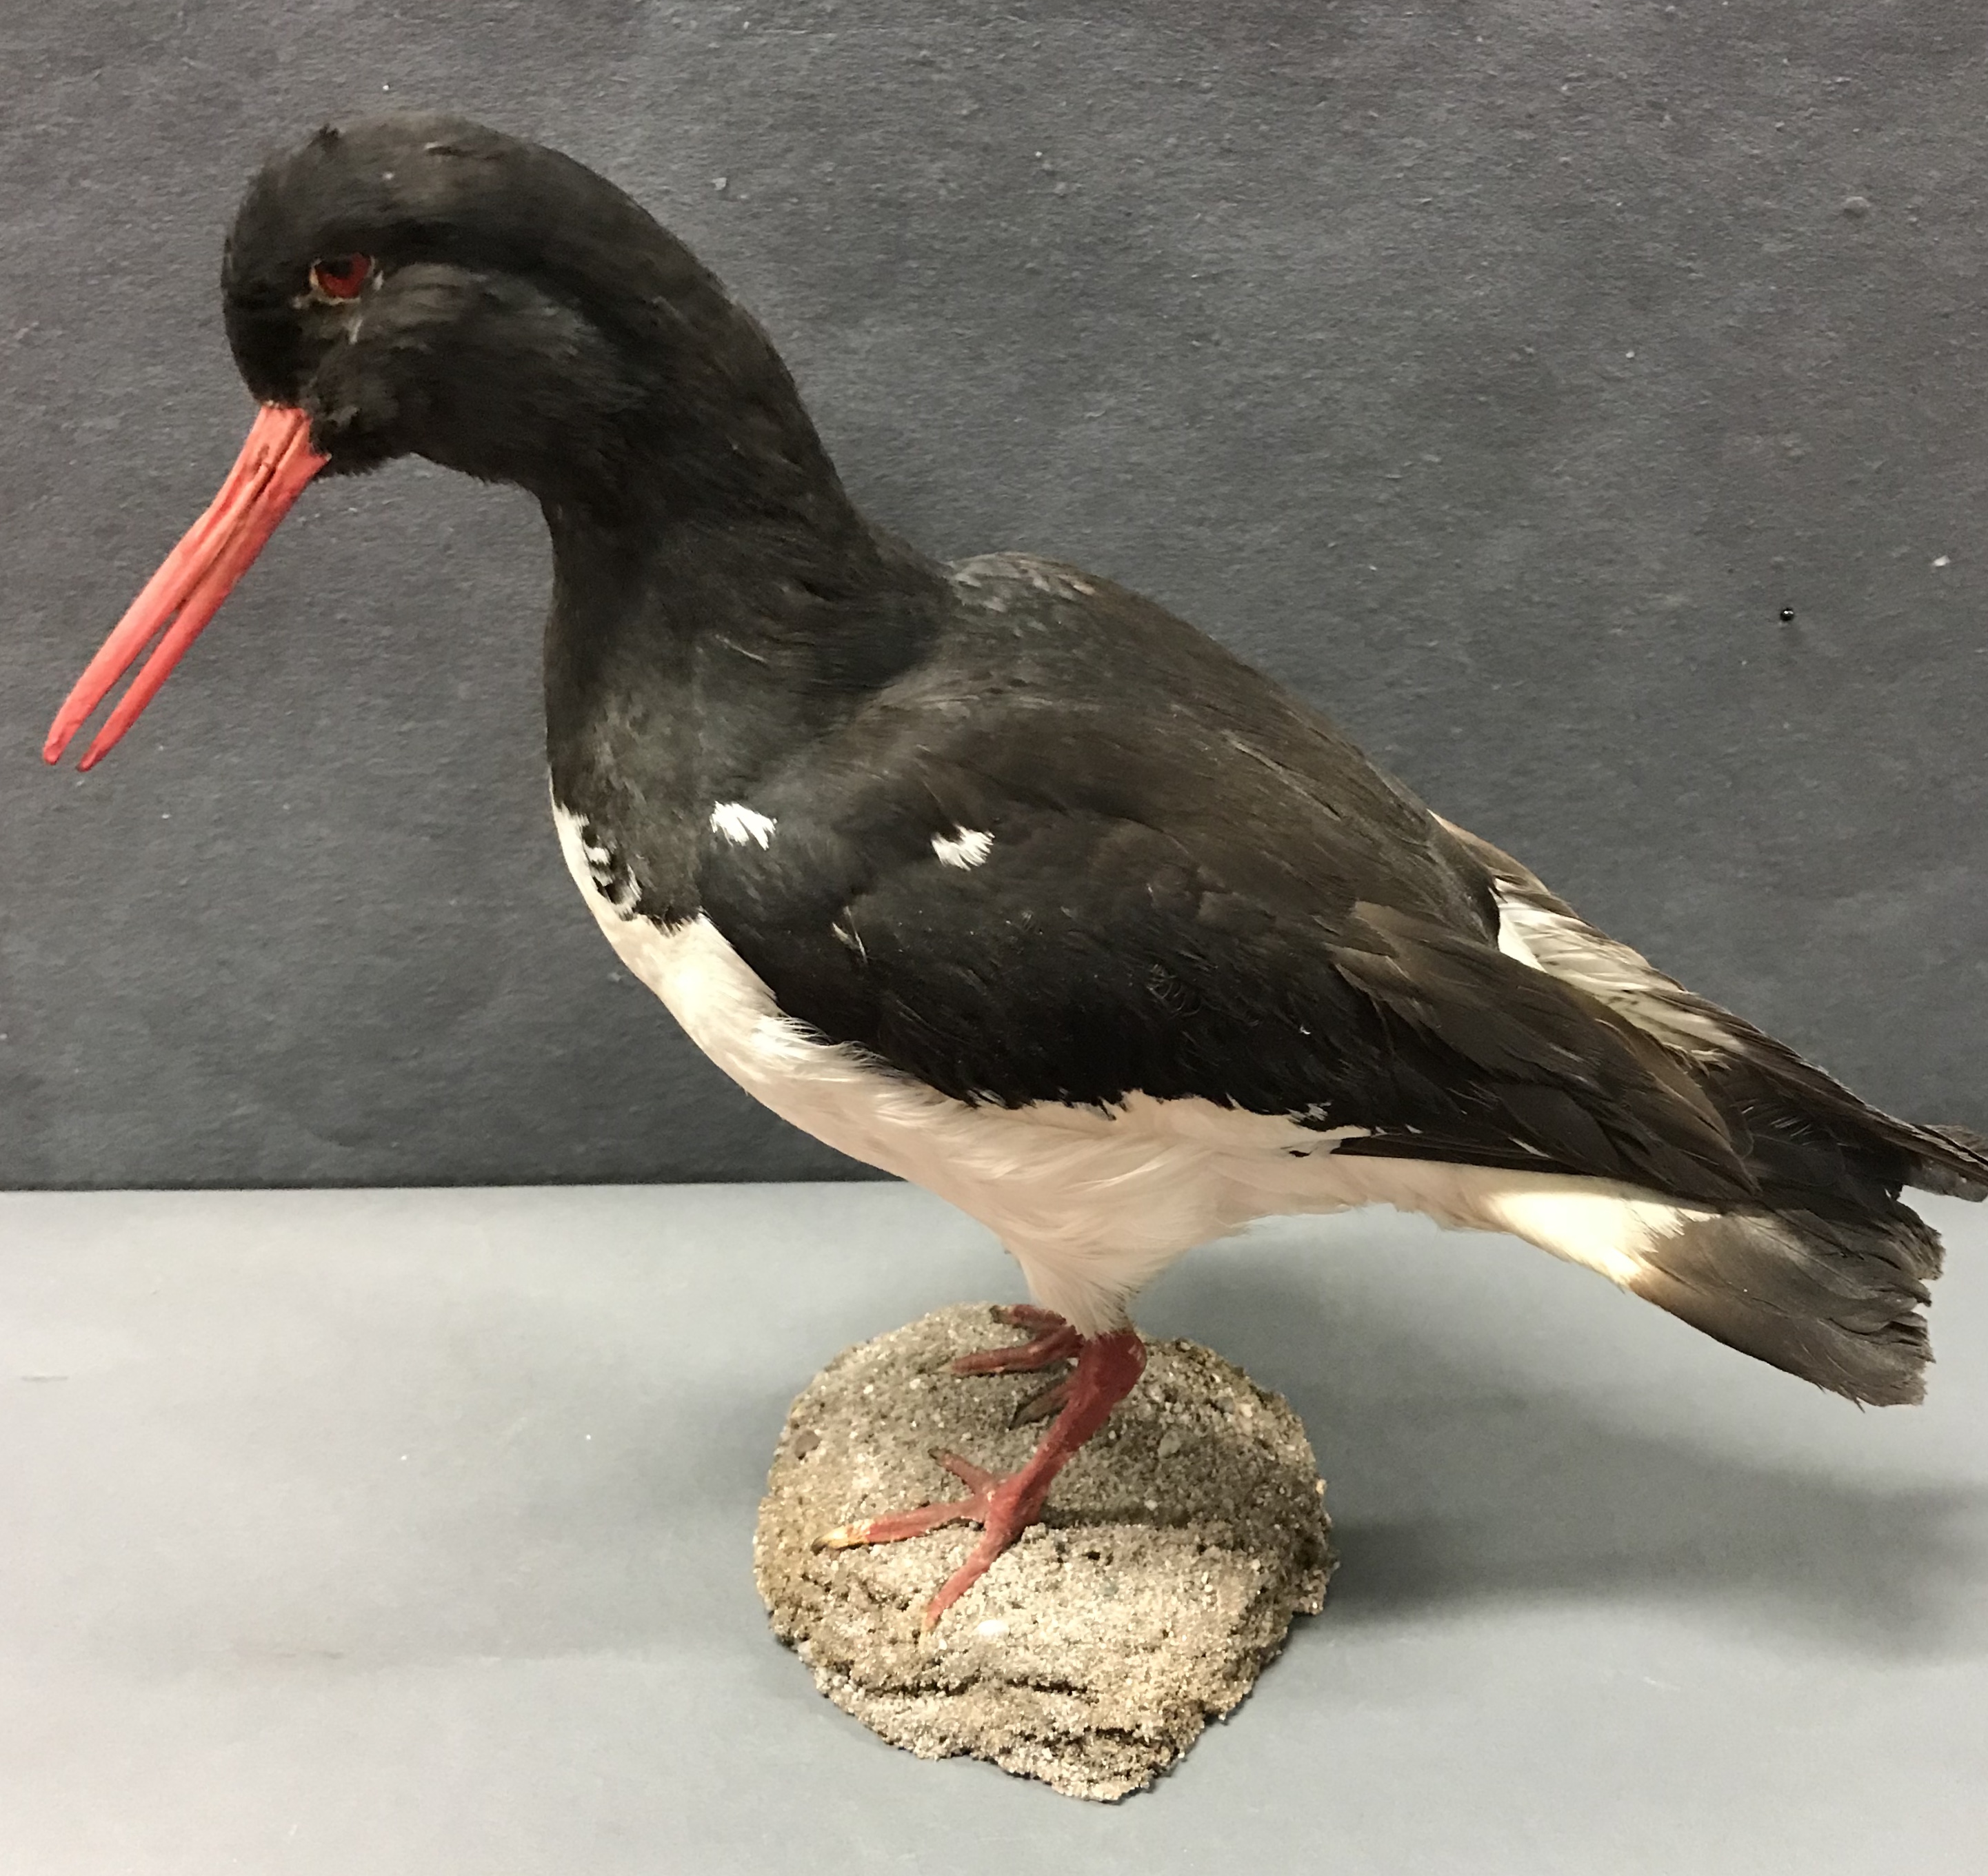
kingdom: Animalia
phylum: Chordata
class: Aves
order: Charadriiformes
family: Haematopodidae
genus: Haematopus
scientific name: Haematopus ostralegus
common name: Eurasian oystercatcher
